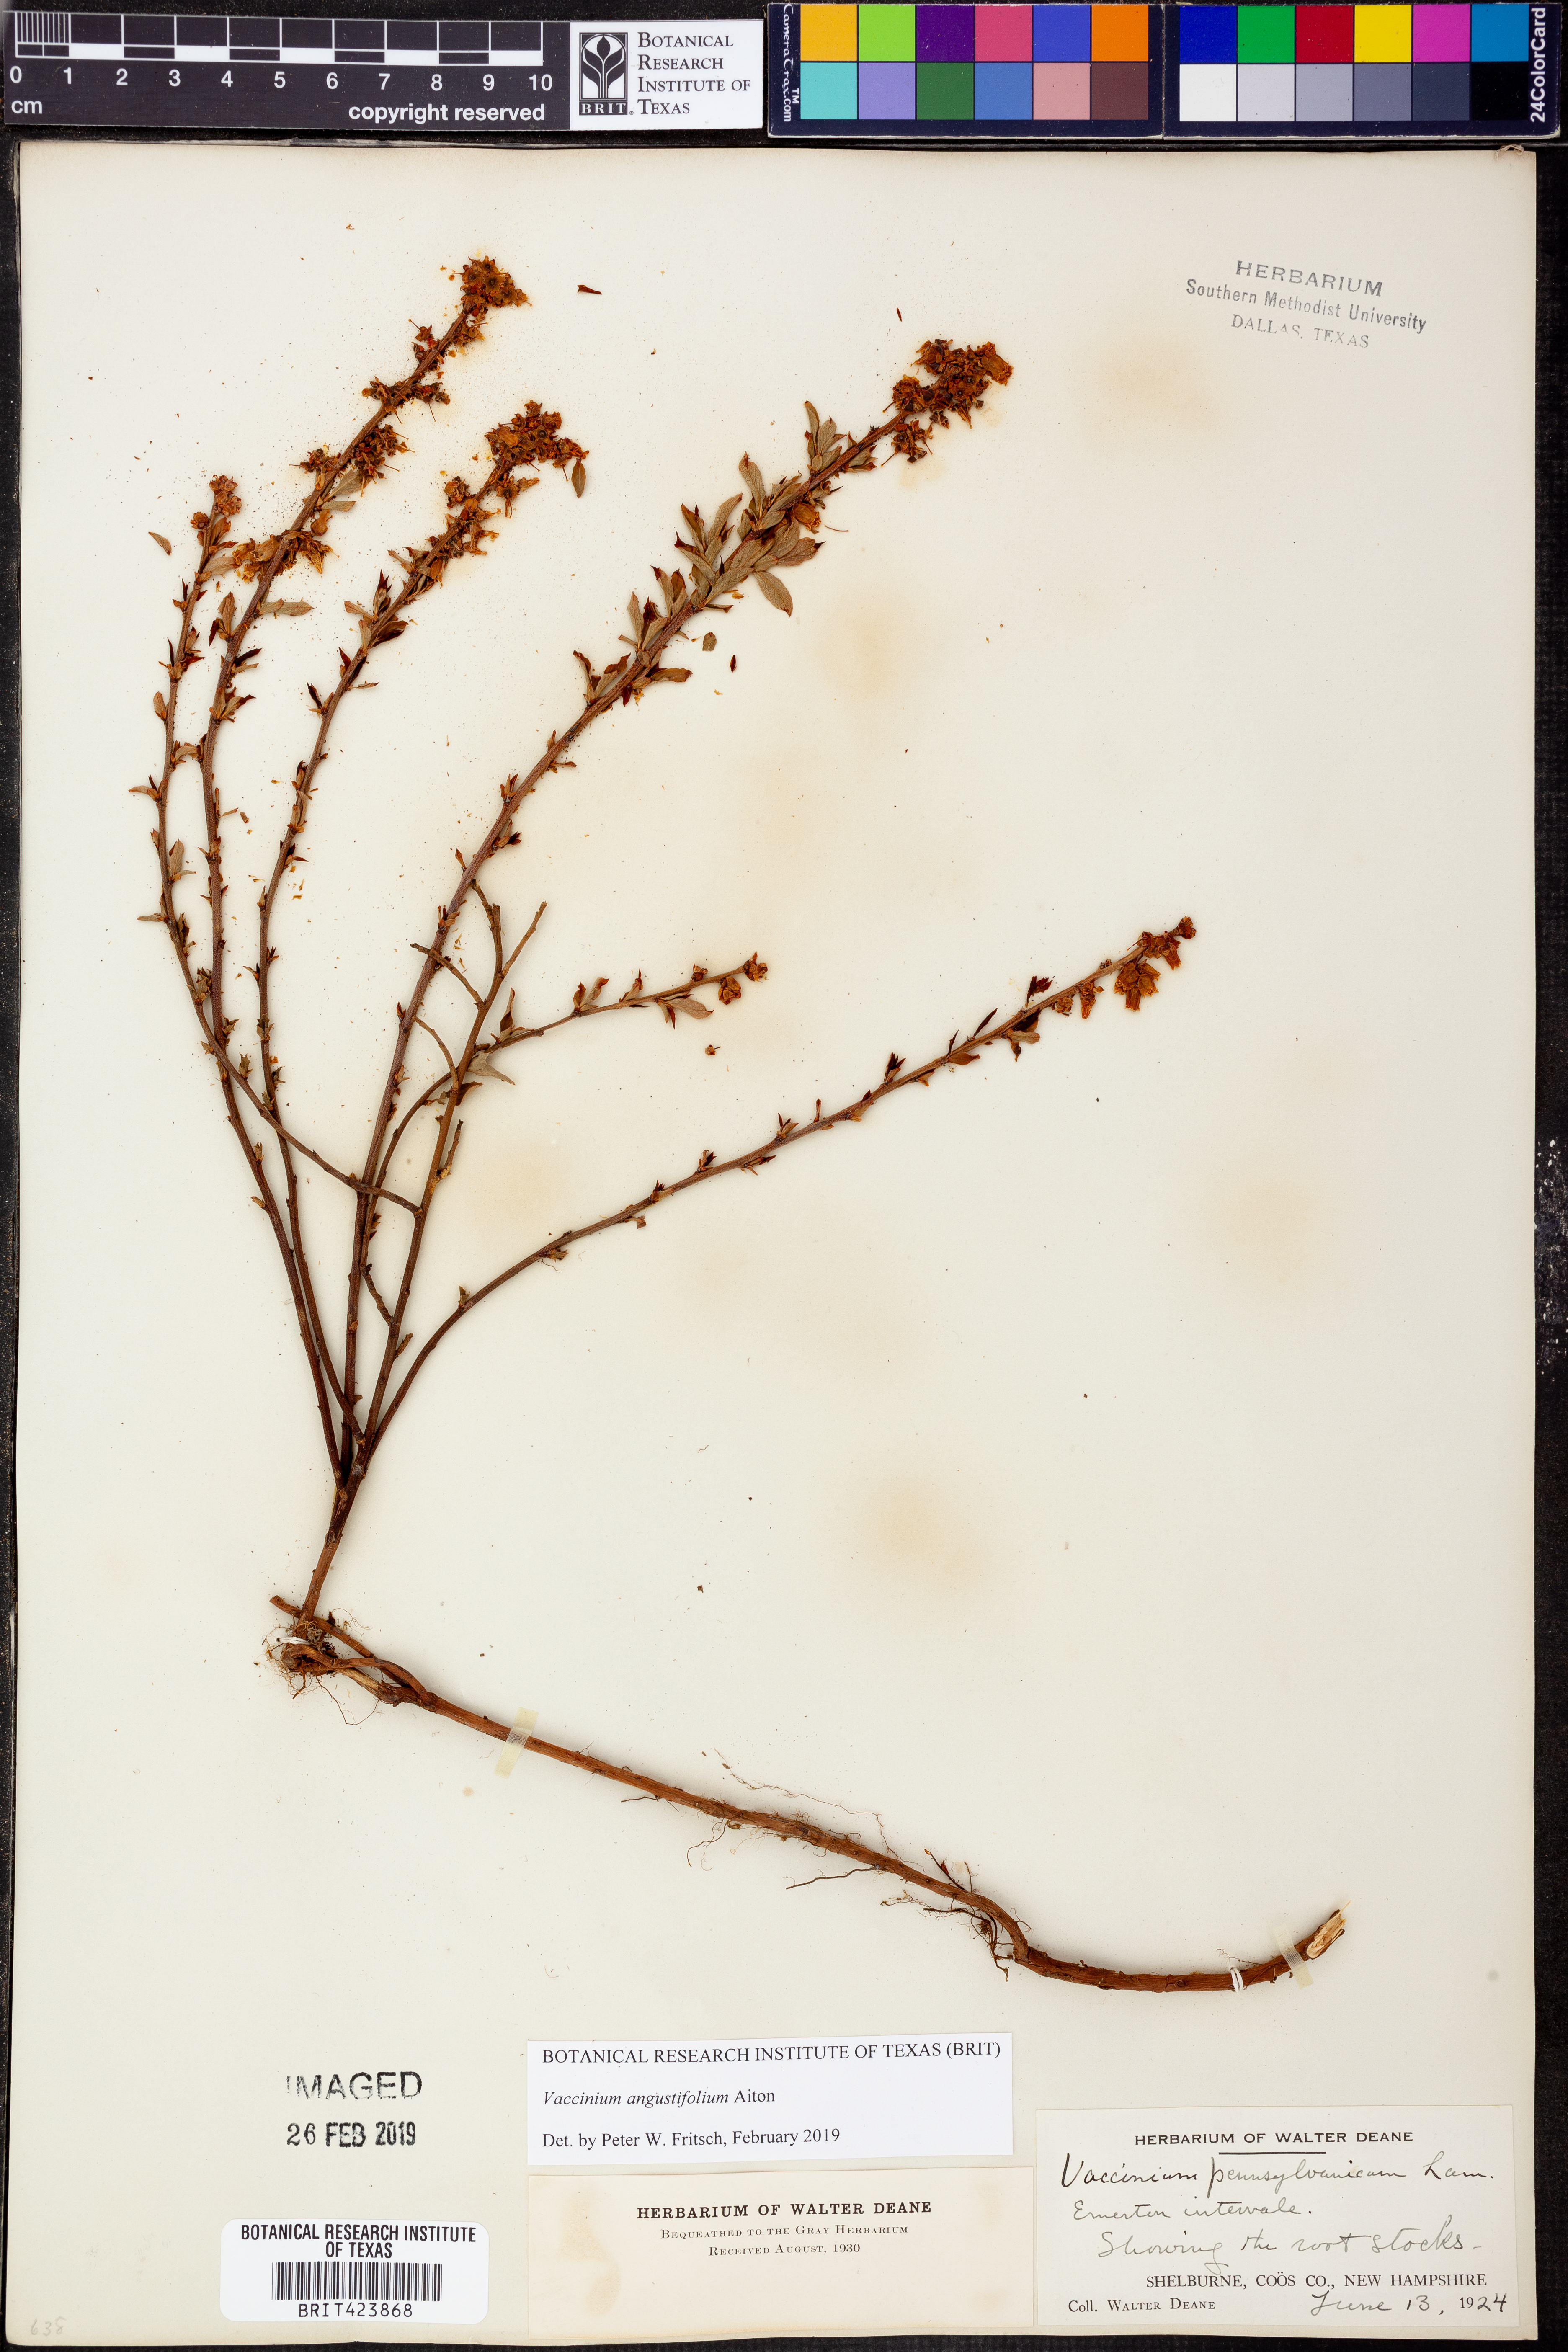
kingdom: Plantae
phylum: Tracheophyta
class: Magnoliopsida
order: Ericales
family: Ericaceae
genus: Vaccinium
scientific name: Vaccinium angustifolium
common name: Early lowbush blueberry
